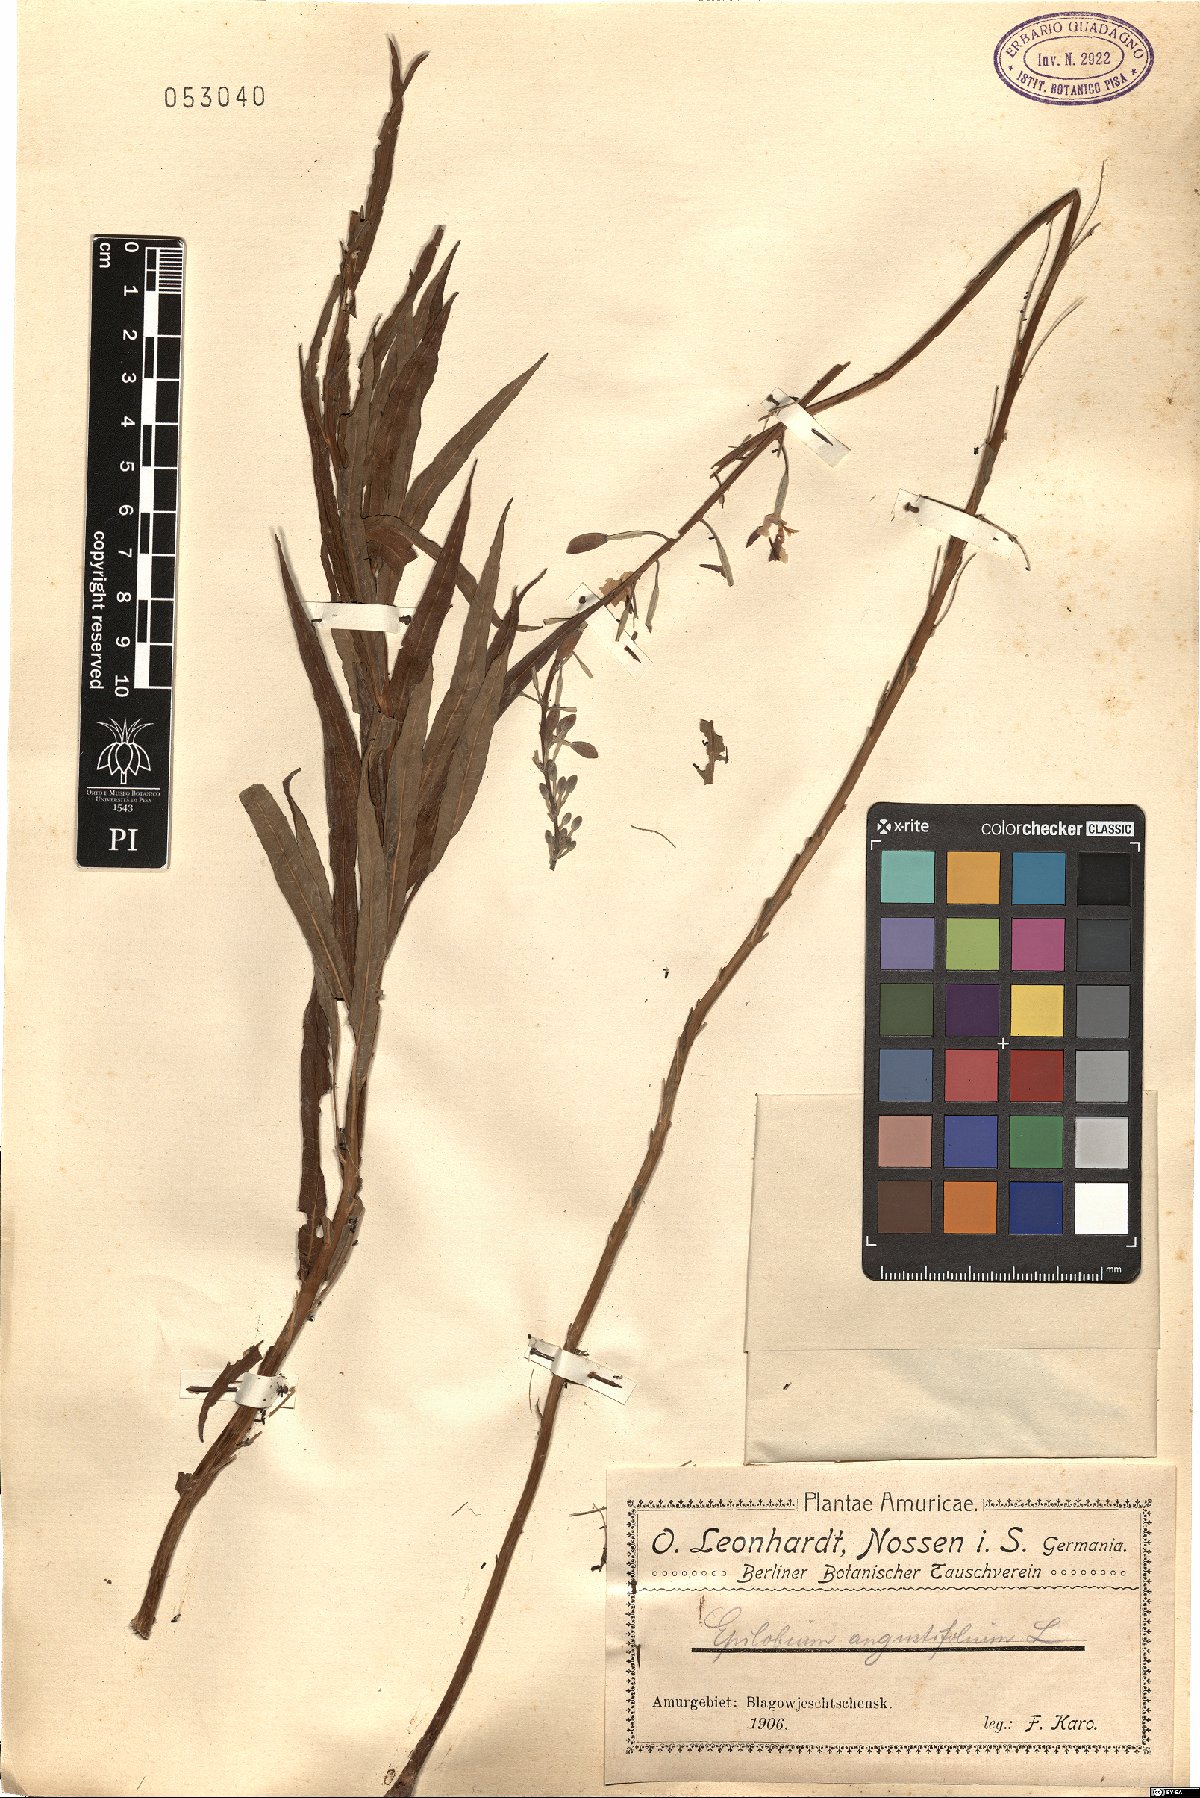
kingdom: Plantae
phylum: Tracheophyta
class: Magnoliopsida
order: Myrtales
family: Onagraceae
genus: Chamaenerion
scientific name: Chamaenerion angustifolium
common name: Fireweed
